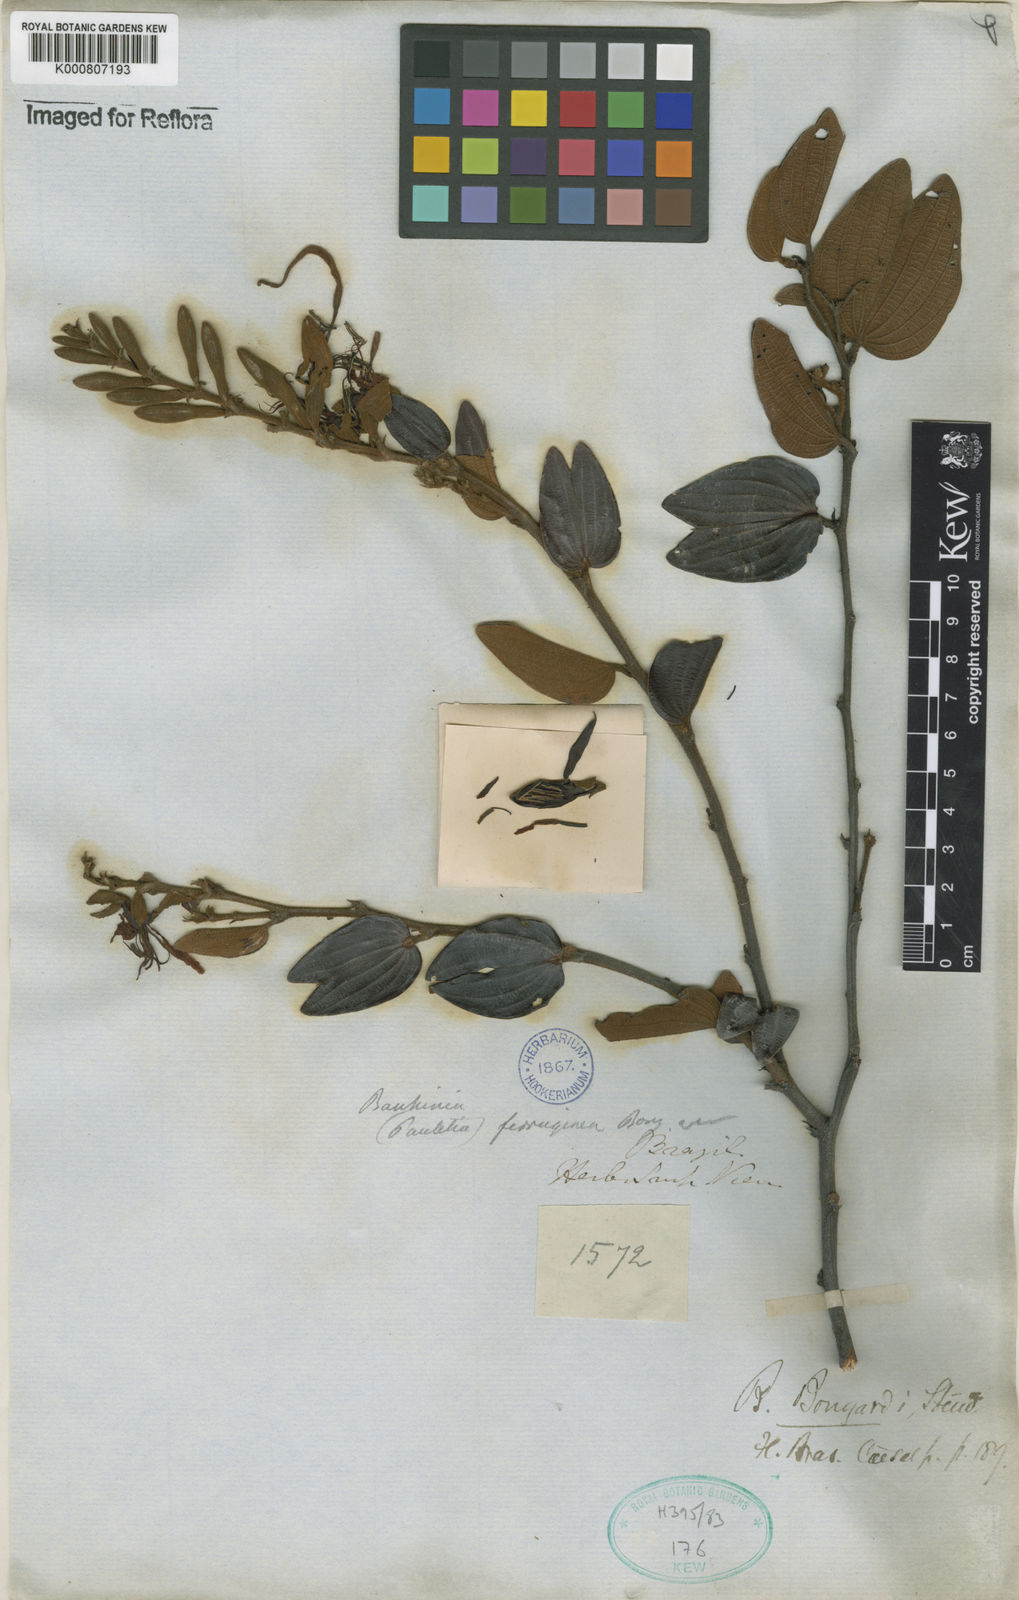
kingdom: Plantae
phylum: Tracheophyta
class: Magnoliopsida
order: Fabales
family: Fabaceae
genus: Bauhinia
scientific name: Bauhinia brevipes
